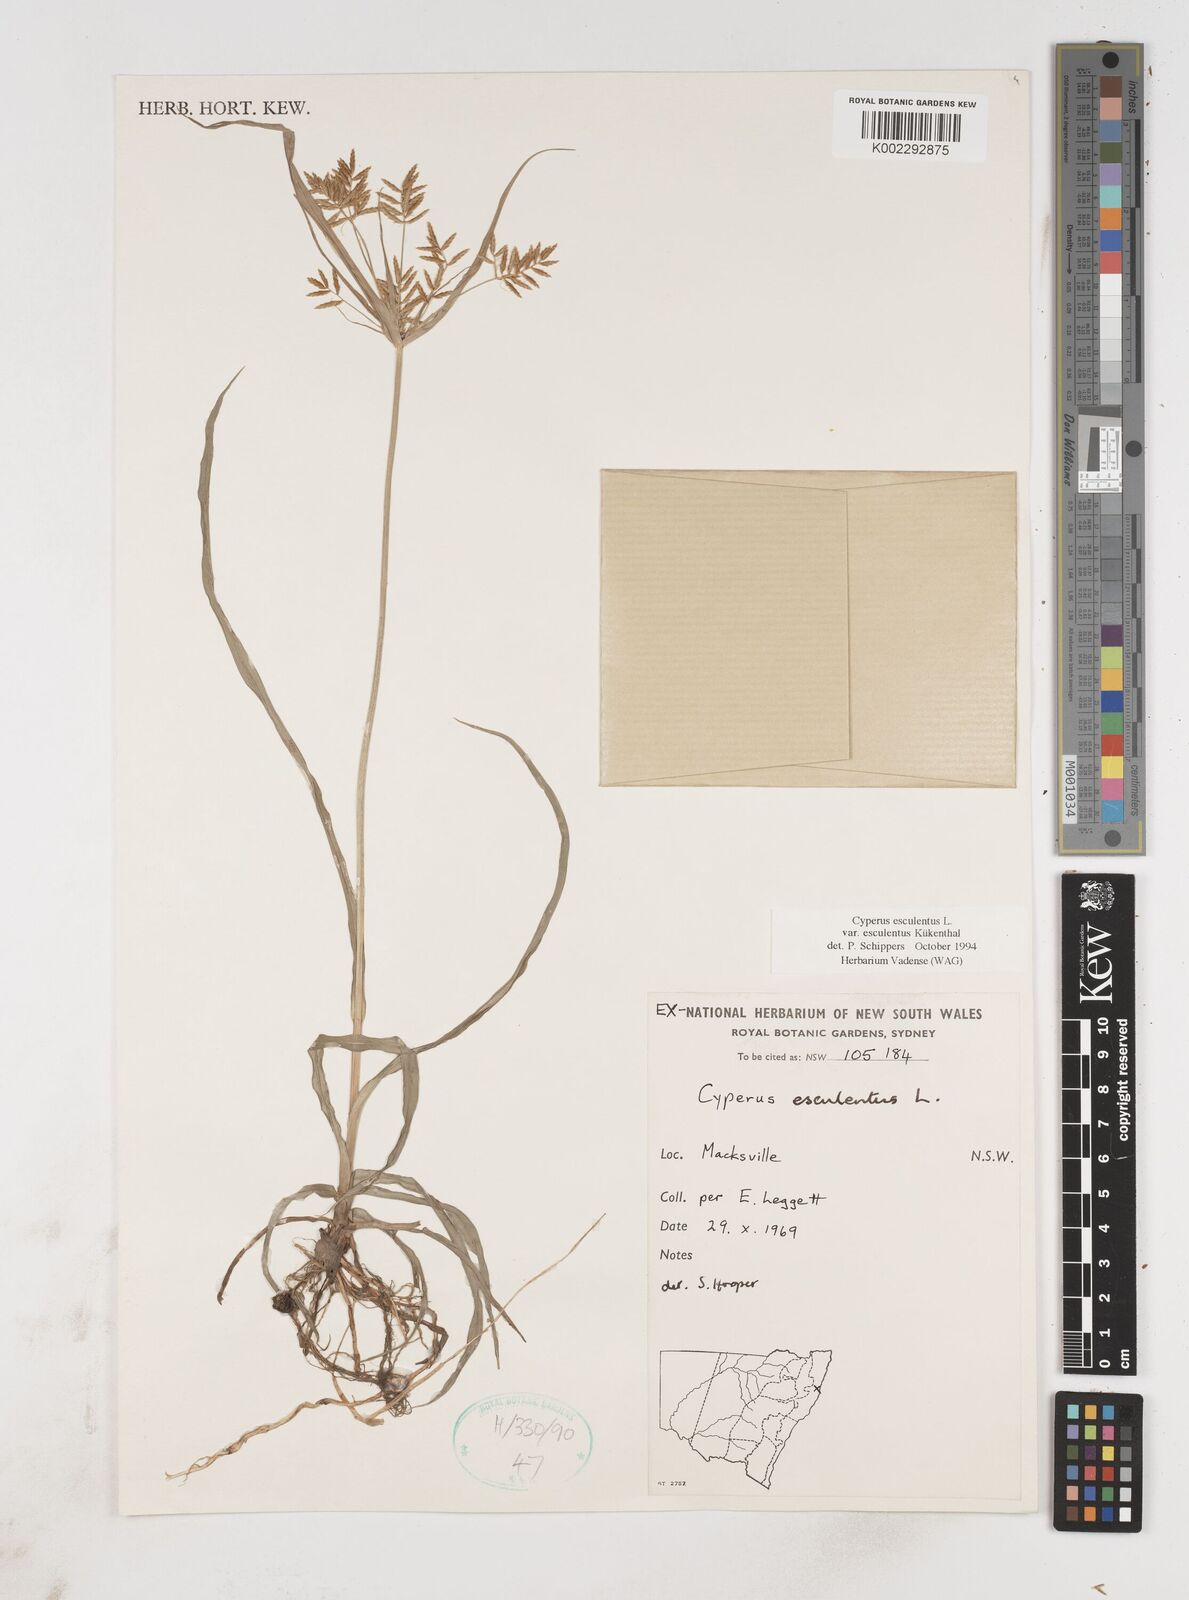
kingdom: Plantae
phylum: Tracheophyta
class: Liliopsida
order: Poales
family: Cyperaceae
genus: Cyperus
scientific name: Cyperus bulbosus
